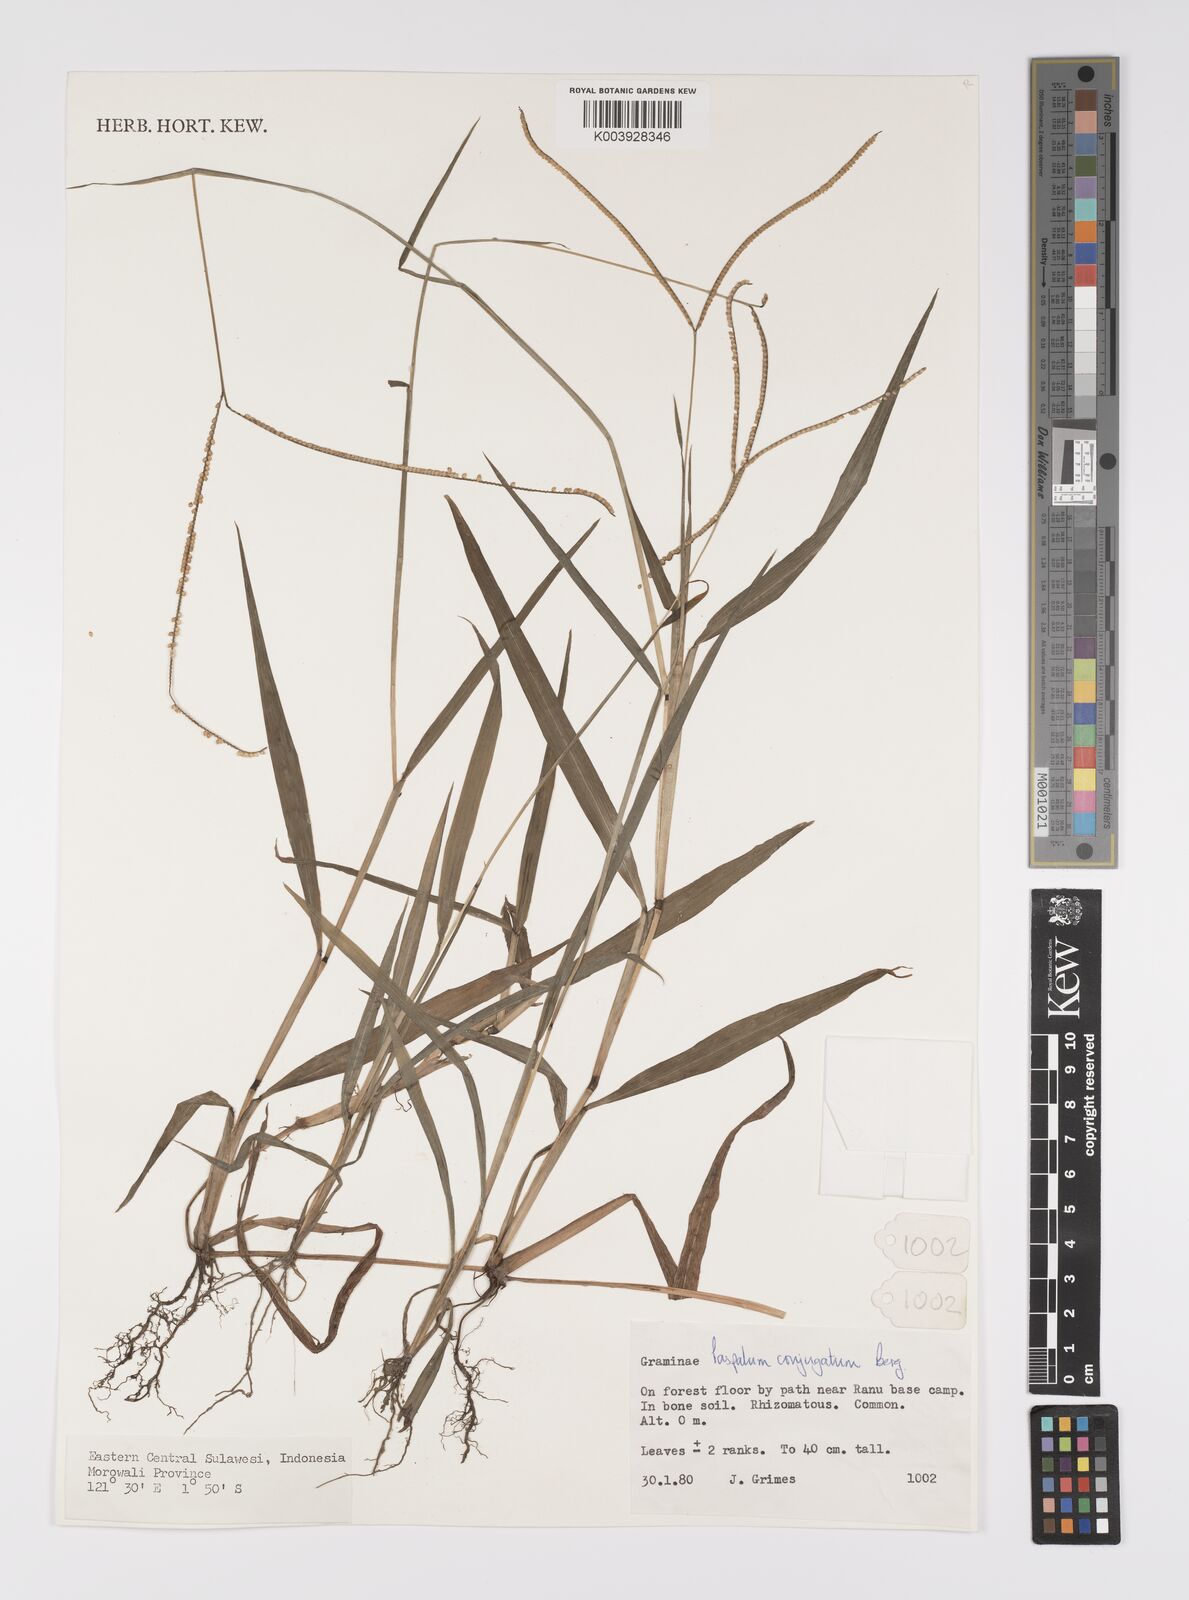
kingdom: Plantae
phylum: Tracheophyta
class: Liliopsida
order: Poales
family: Poaceae
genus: Paspalum
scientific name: Paspalum conjugatum
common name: Hilograss
